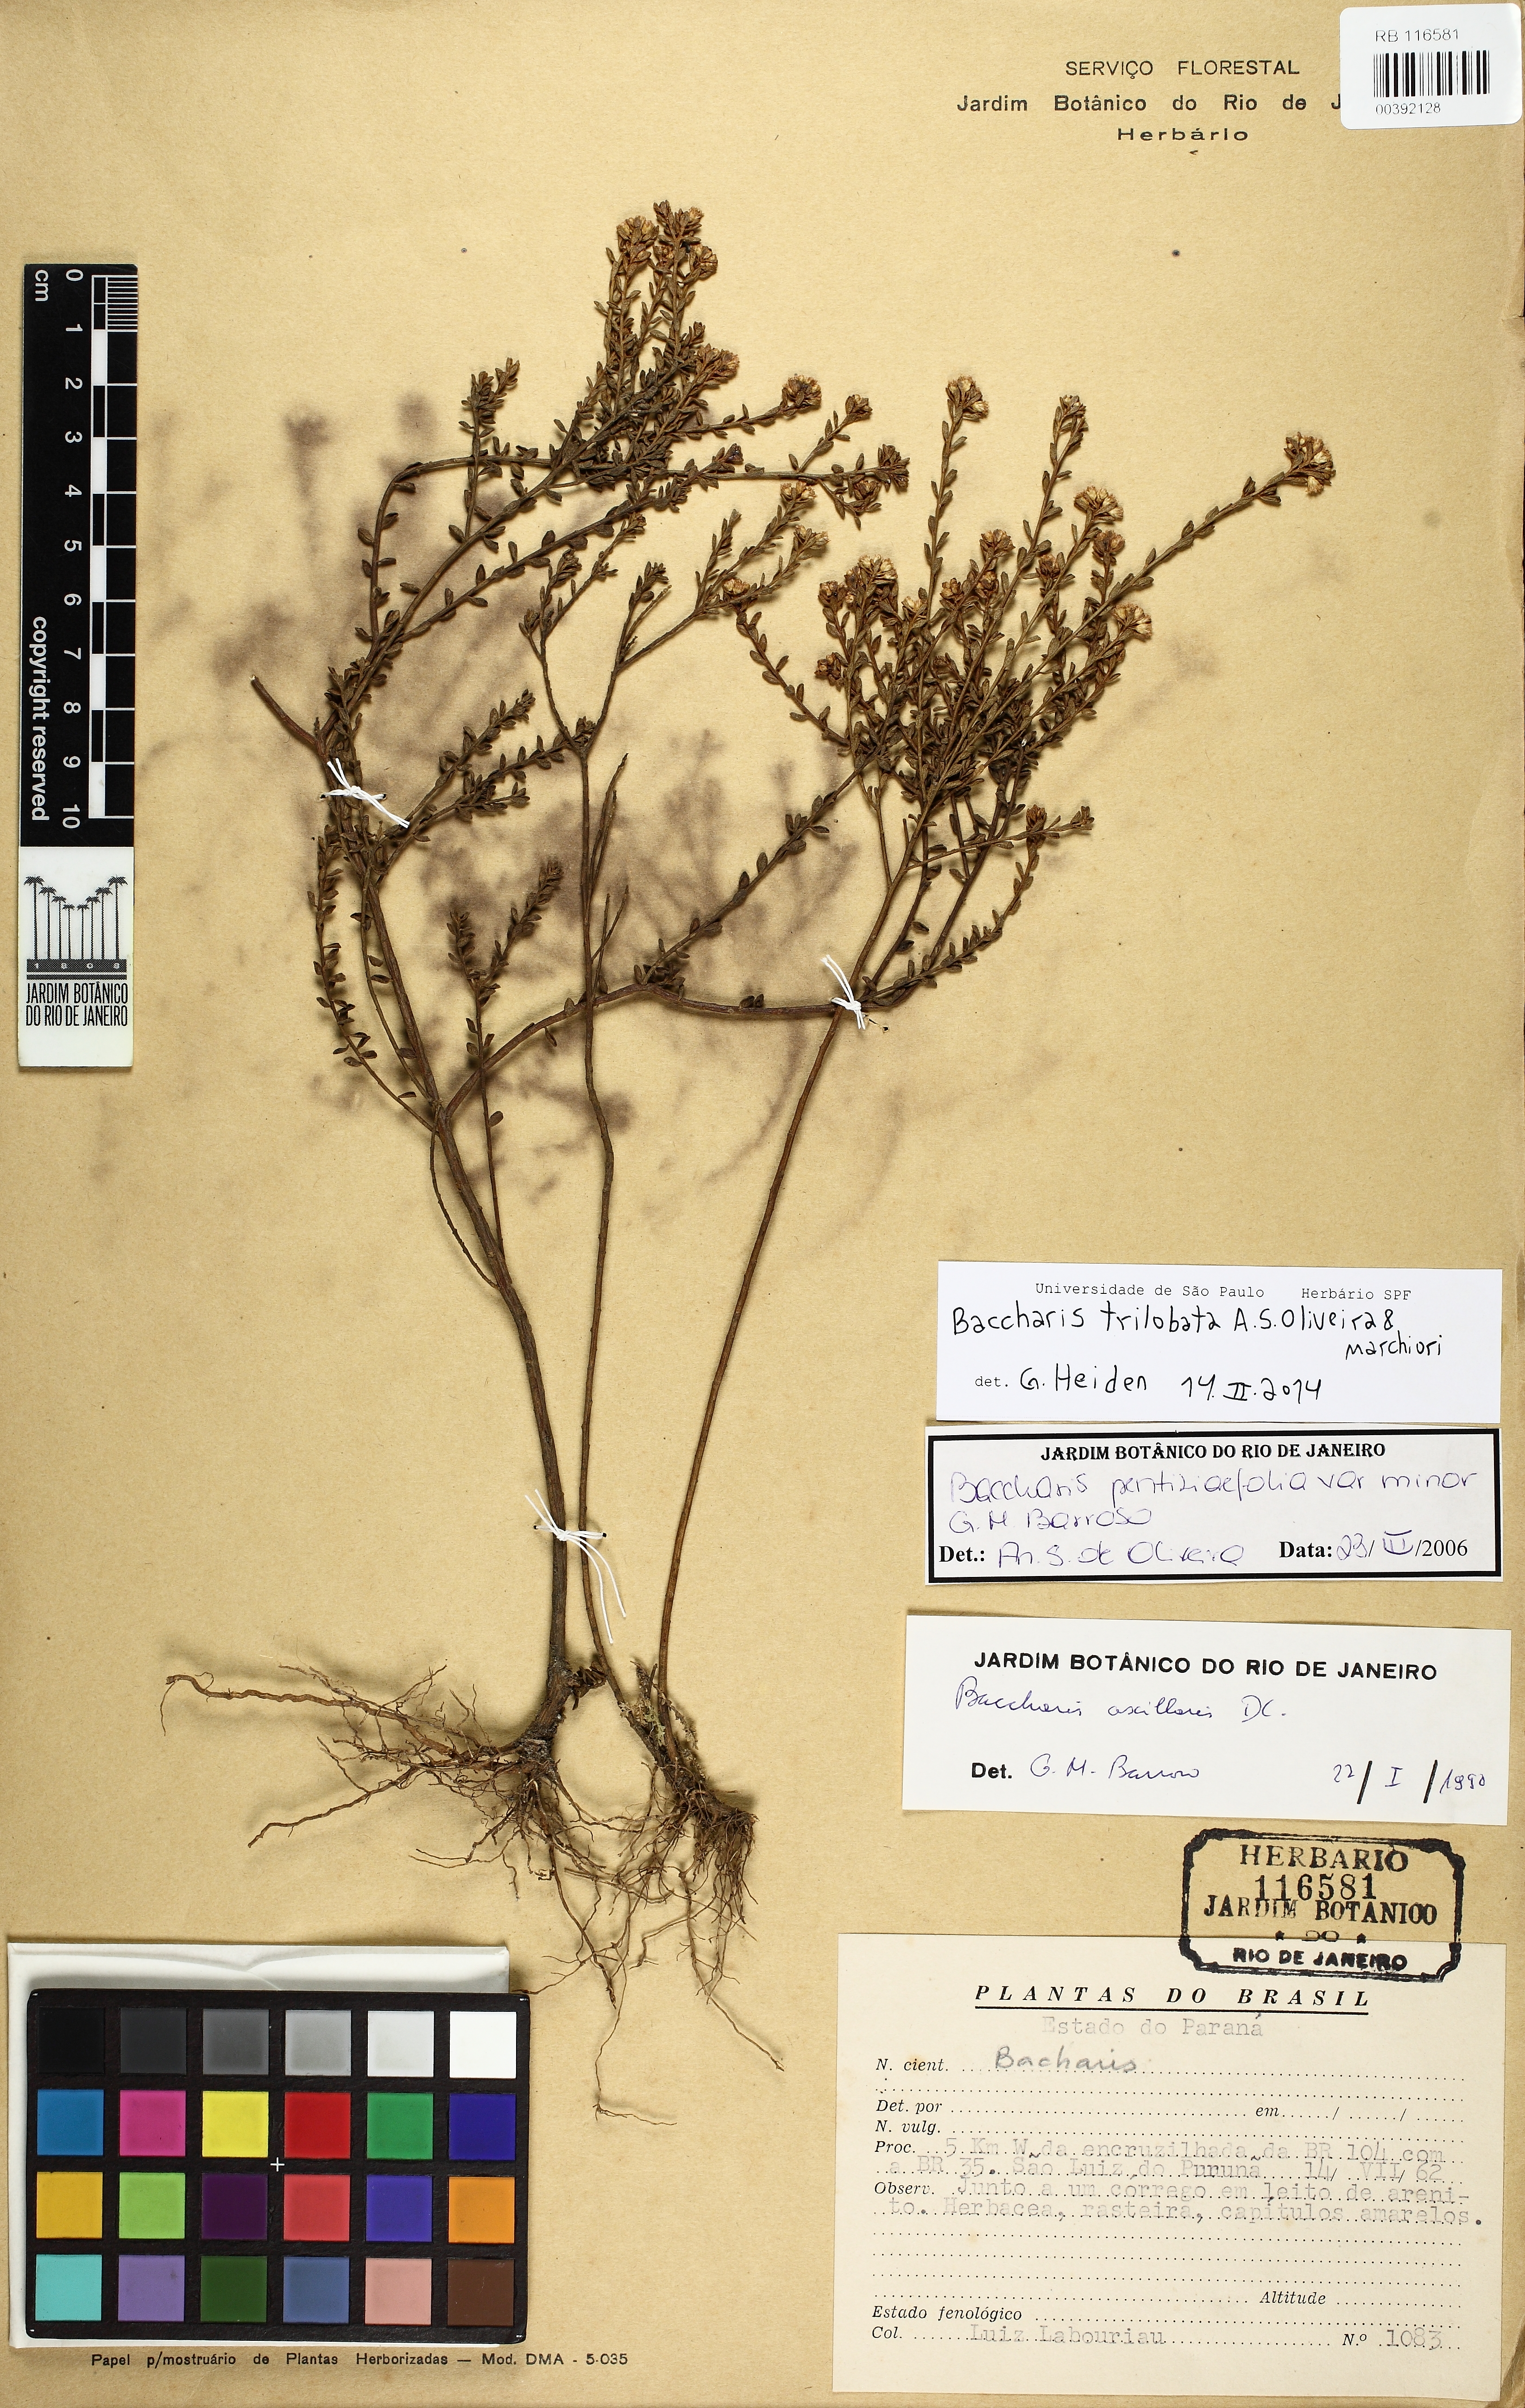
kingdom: Plantae
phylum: Tracheophyta
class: Magnoliopsida
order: Asterales
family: Asteraceae
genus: Baccharis
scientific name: Baccharis trilobata
